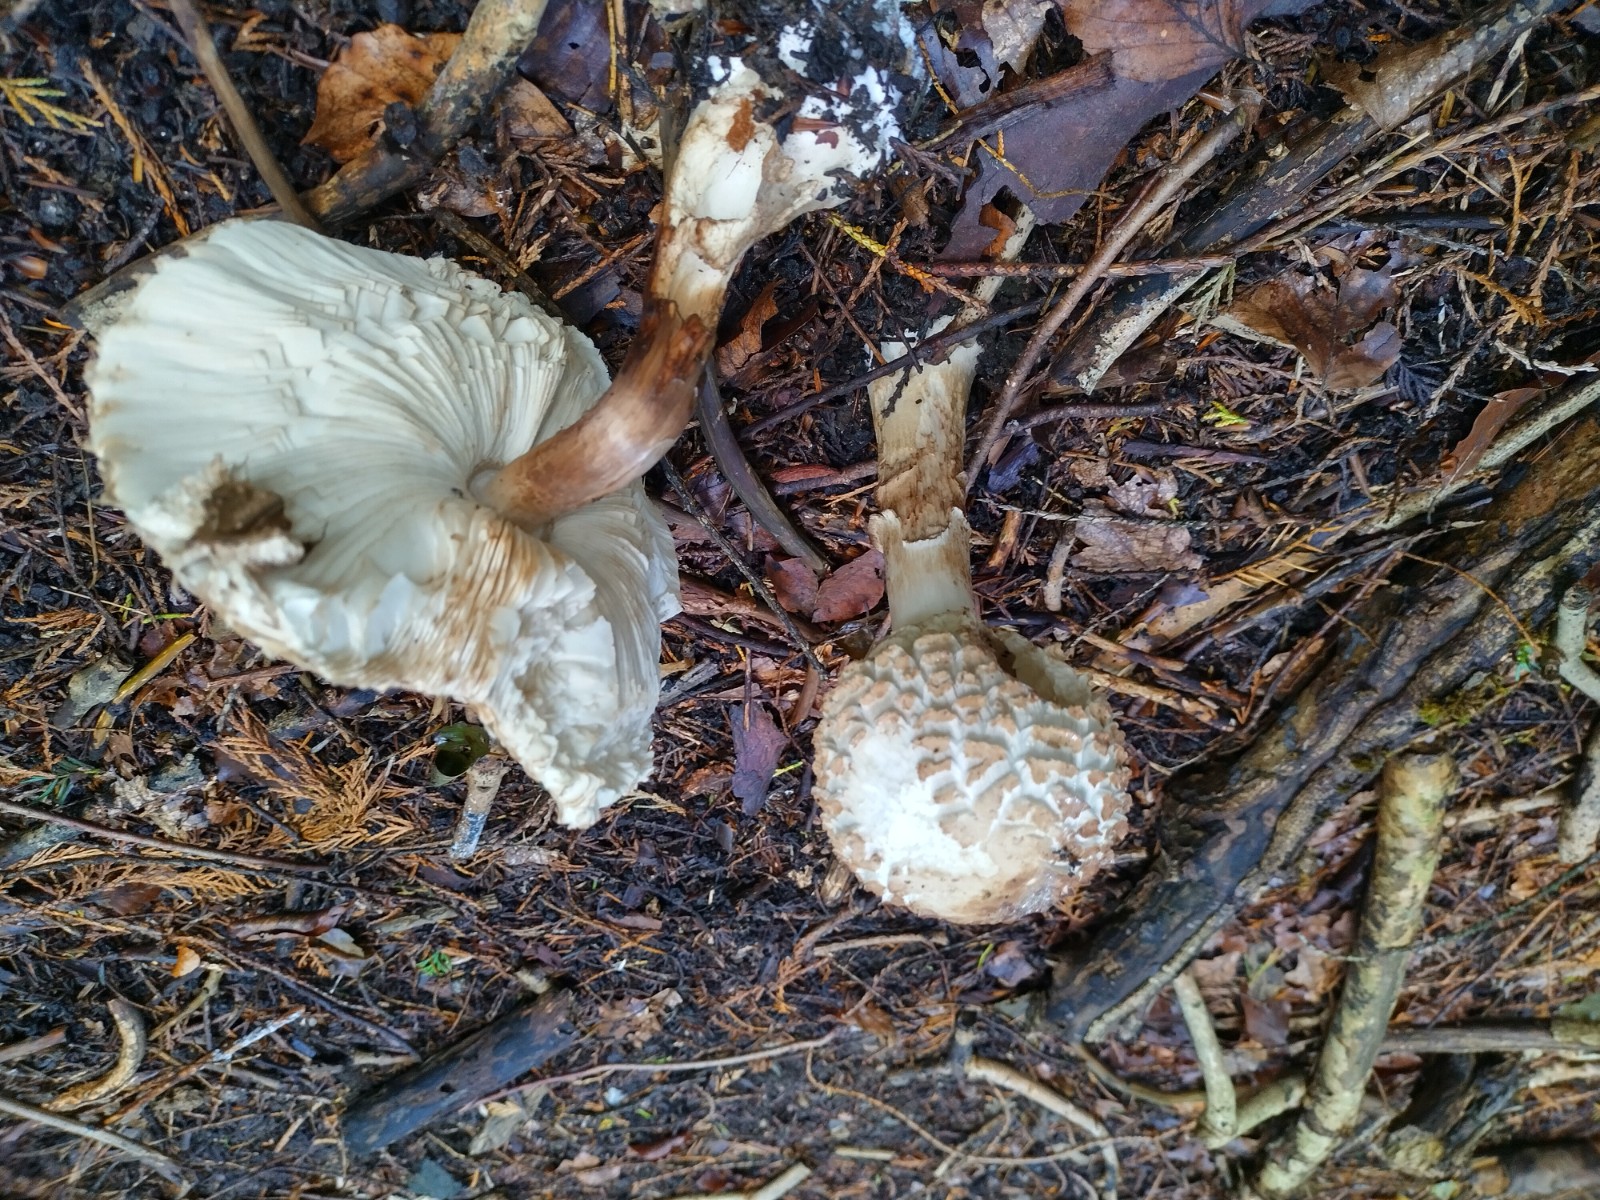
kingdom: Fungi
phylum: Basidiomycota
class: Agaricomycetes
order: Agaricales
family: Agaricaceae
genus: Chlorophyllum
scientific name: Chlorophyllum rhacodes
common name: ægte rabarberhat
